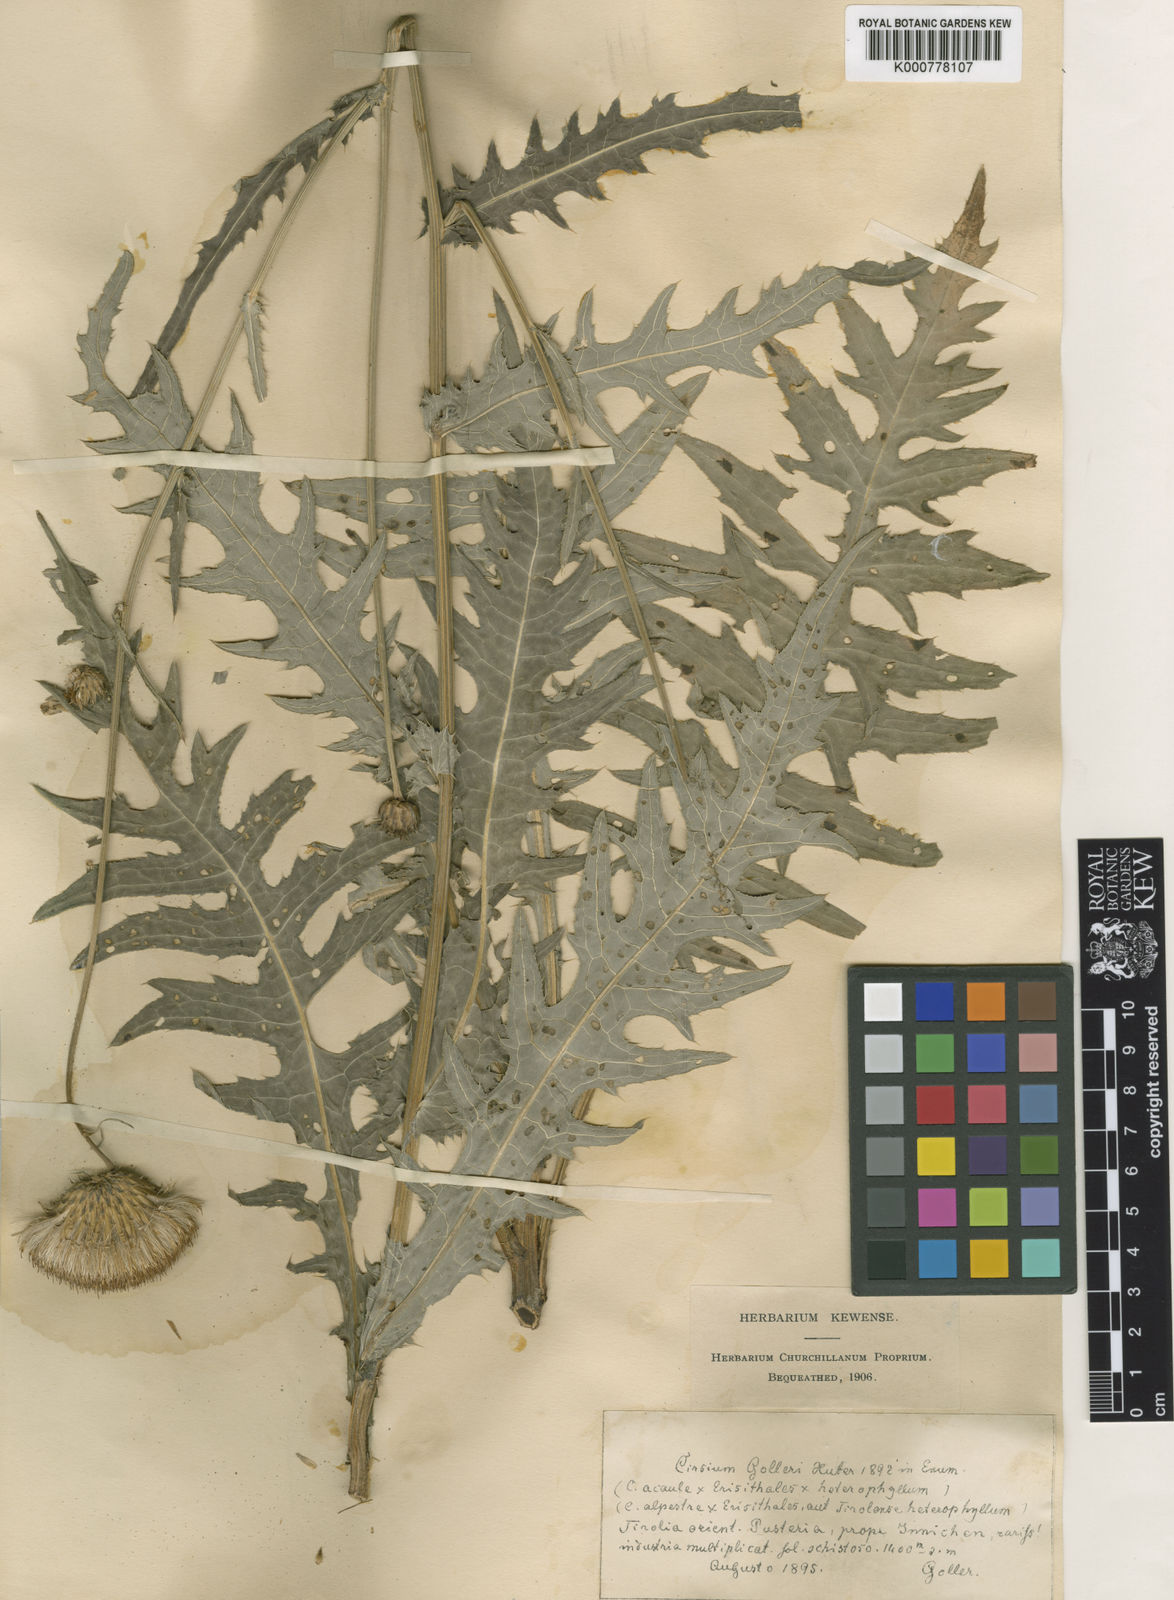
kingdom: Plantae
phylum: Tracheophyta
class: Magnoliopsida
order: Asterales
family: Asteraceae
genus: Cirsium
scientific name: Cirsium
